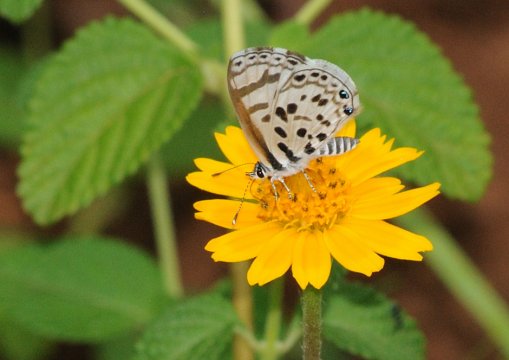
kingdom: Animalia
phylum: Arthropoda
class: Insecta
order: Lepidoptera
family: Lycaenidae
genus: Azanus
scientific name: Azanus natalensis
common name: Natal Babul Blue
